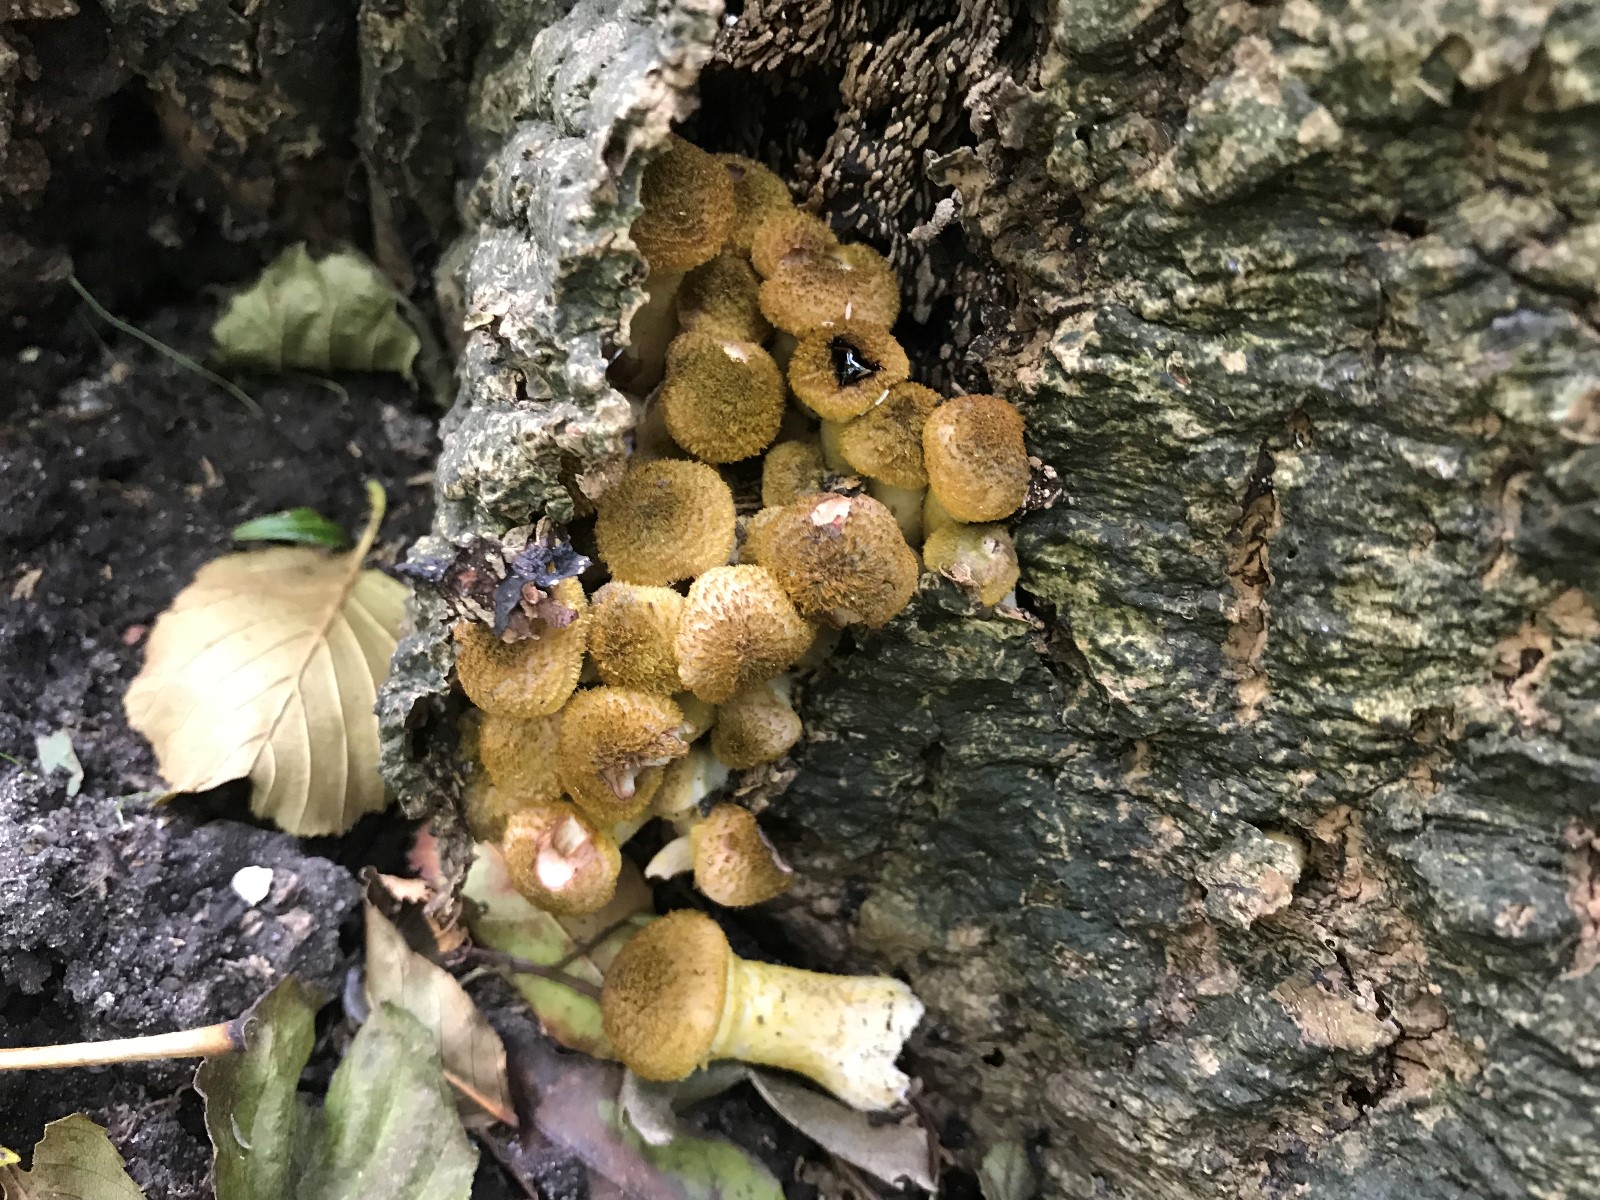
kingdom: Fungi
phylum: Basidiomycota
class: Agaricomycetes
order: Agaricales
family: Physalacriaceae
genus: Armillaria
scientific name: Armillaria
